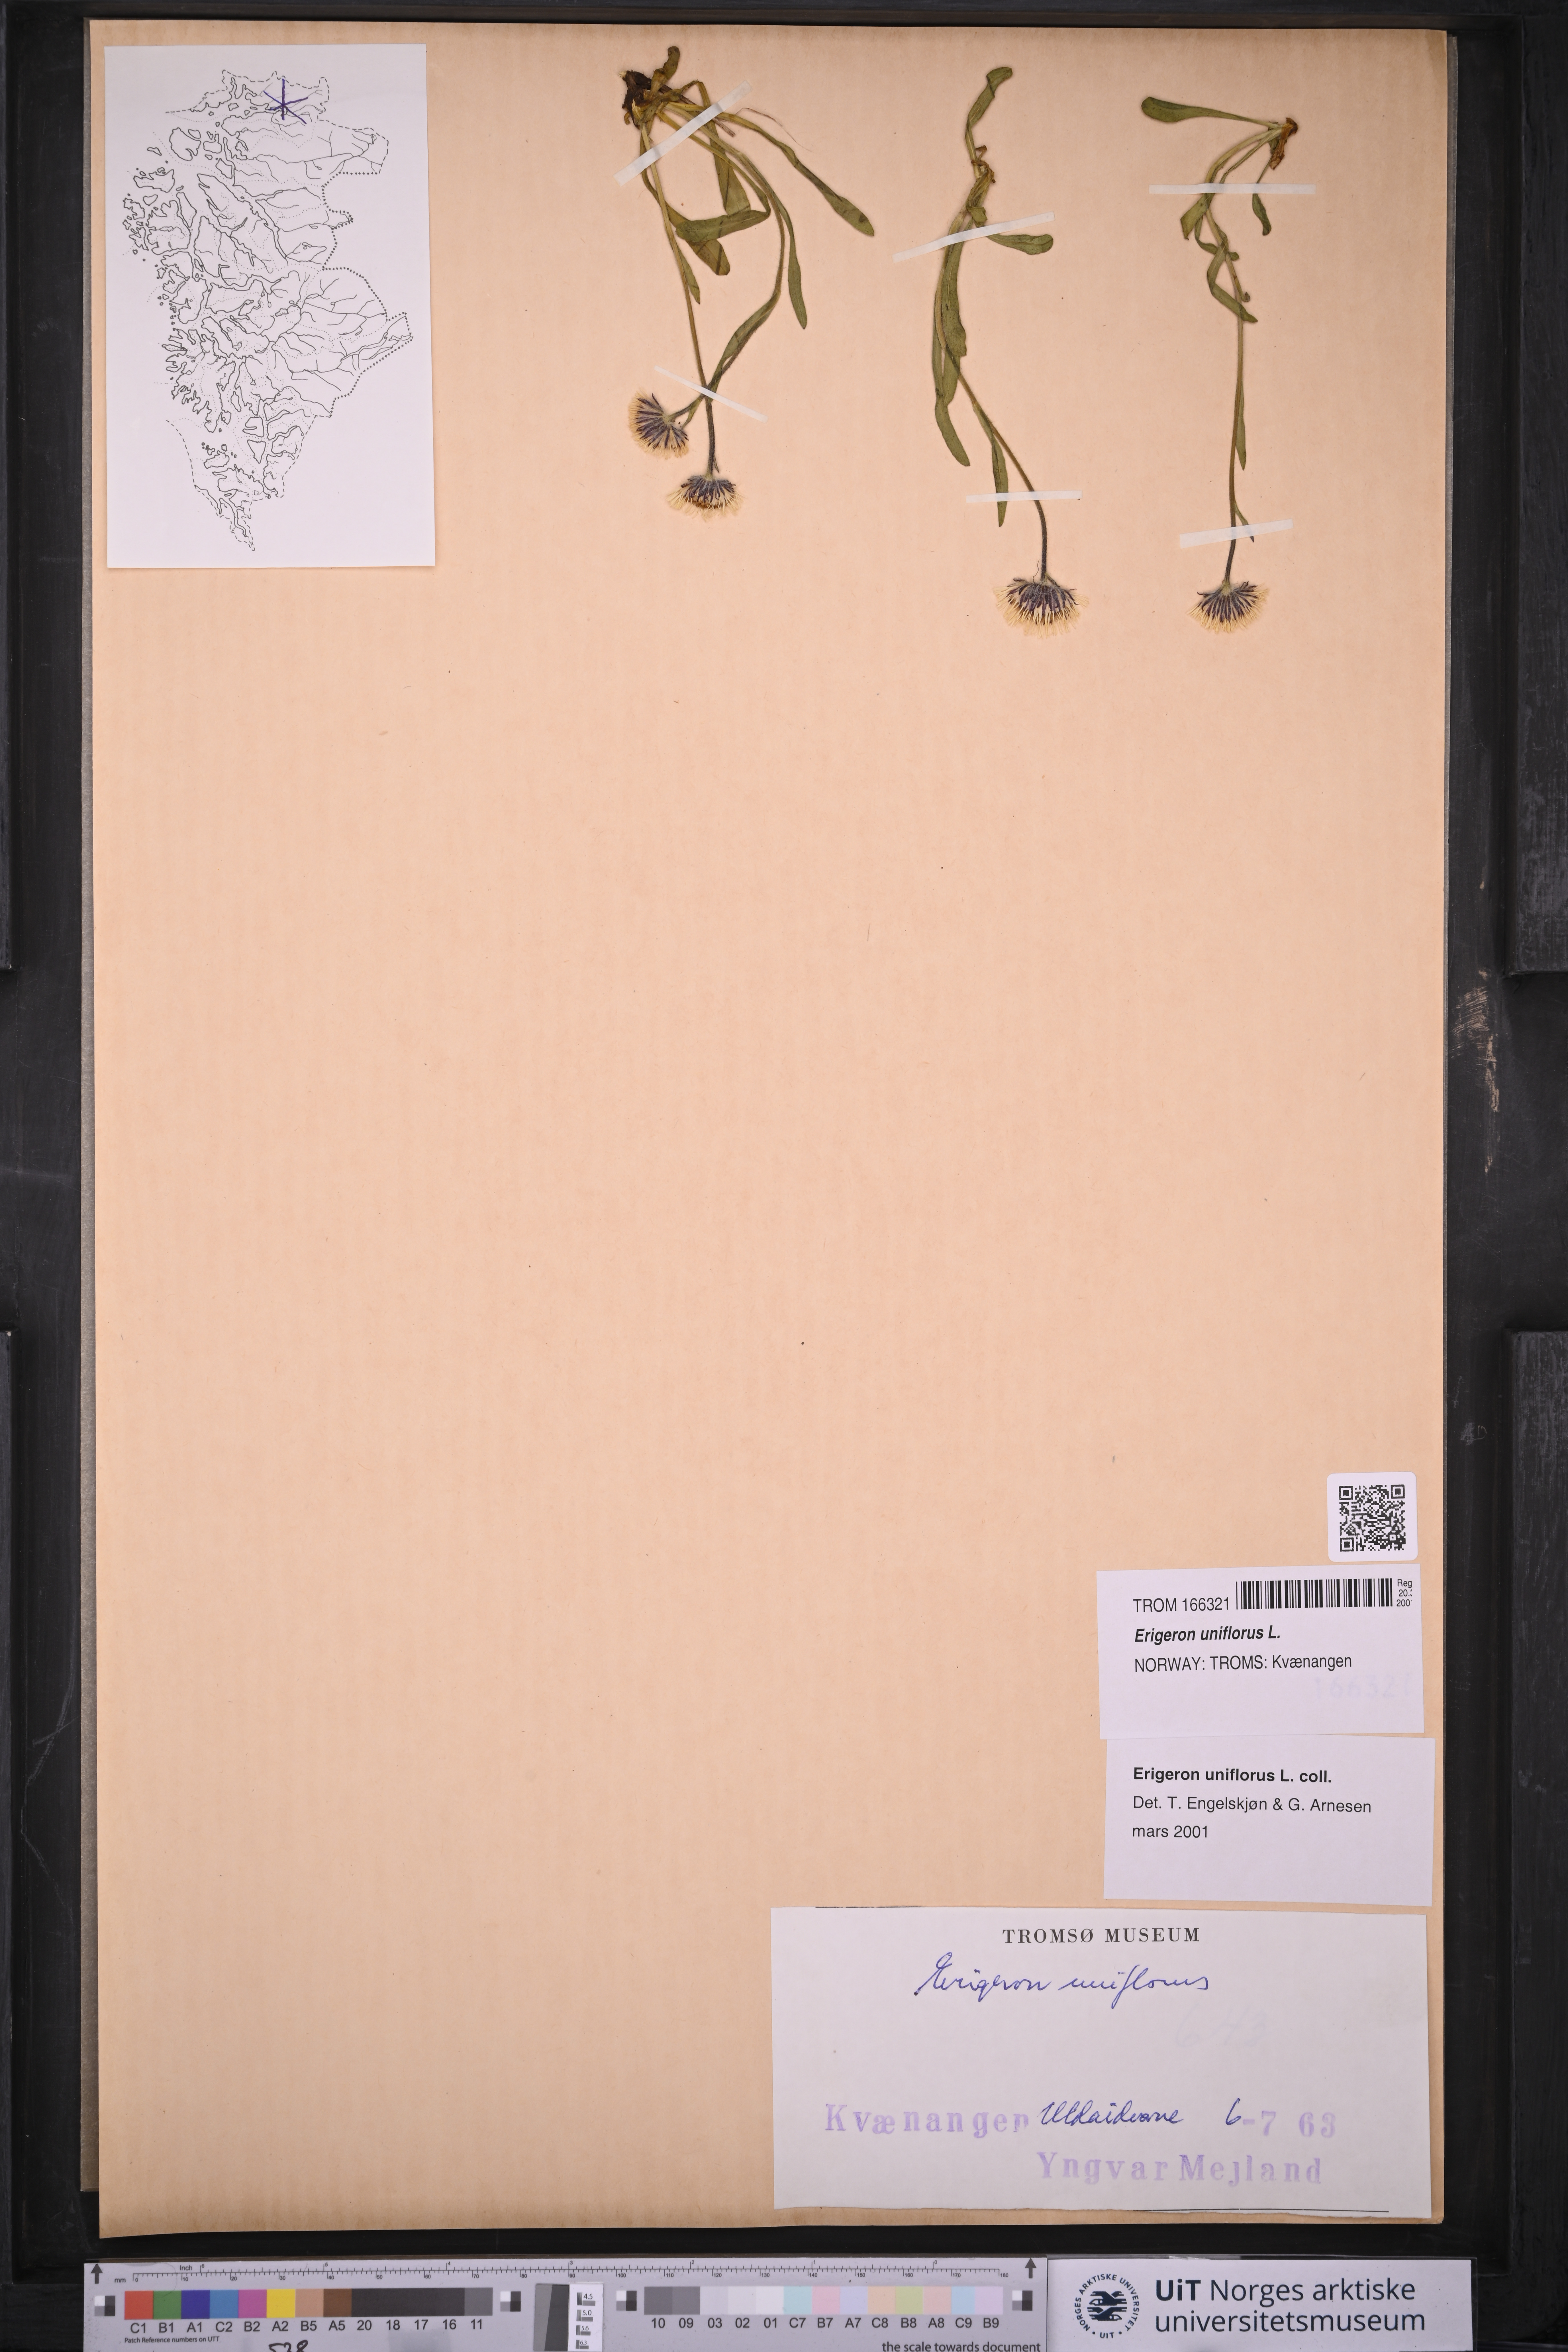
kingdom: Plantae
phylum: Tracheophyta
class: Magnoliopsida
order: Asterales
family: Asteraceae
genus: Erigeron
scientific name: Erigeron uniflorus
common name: Northern daisy
